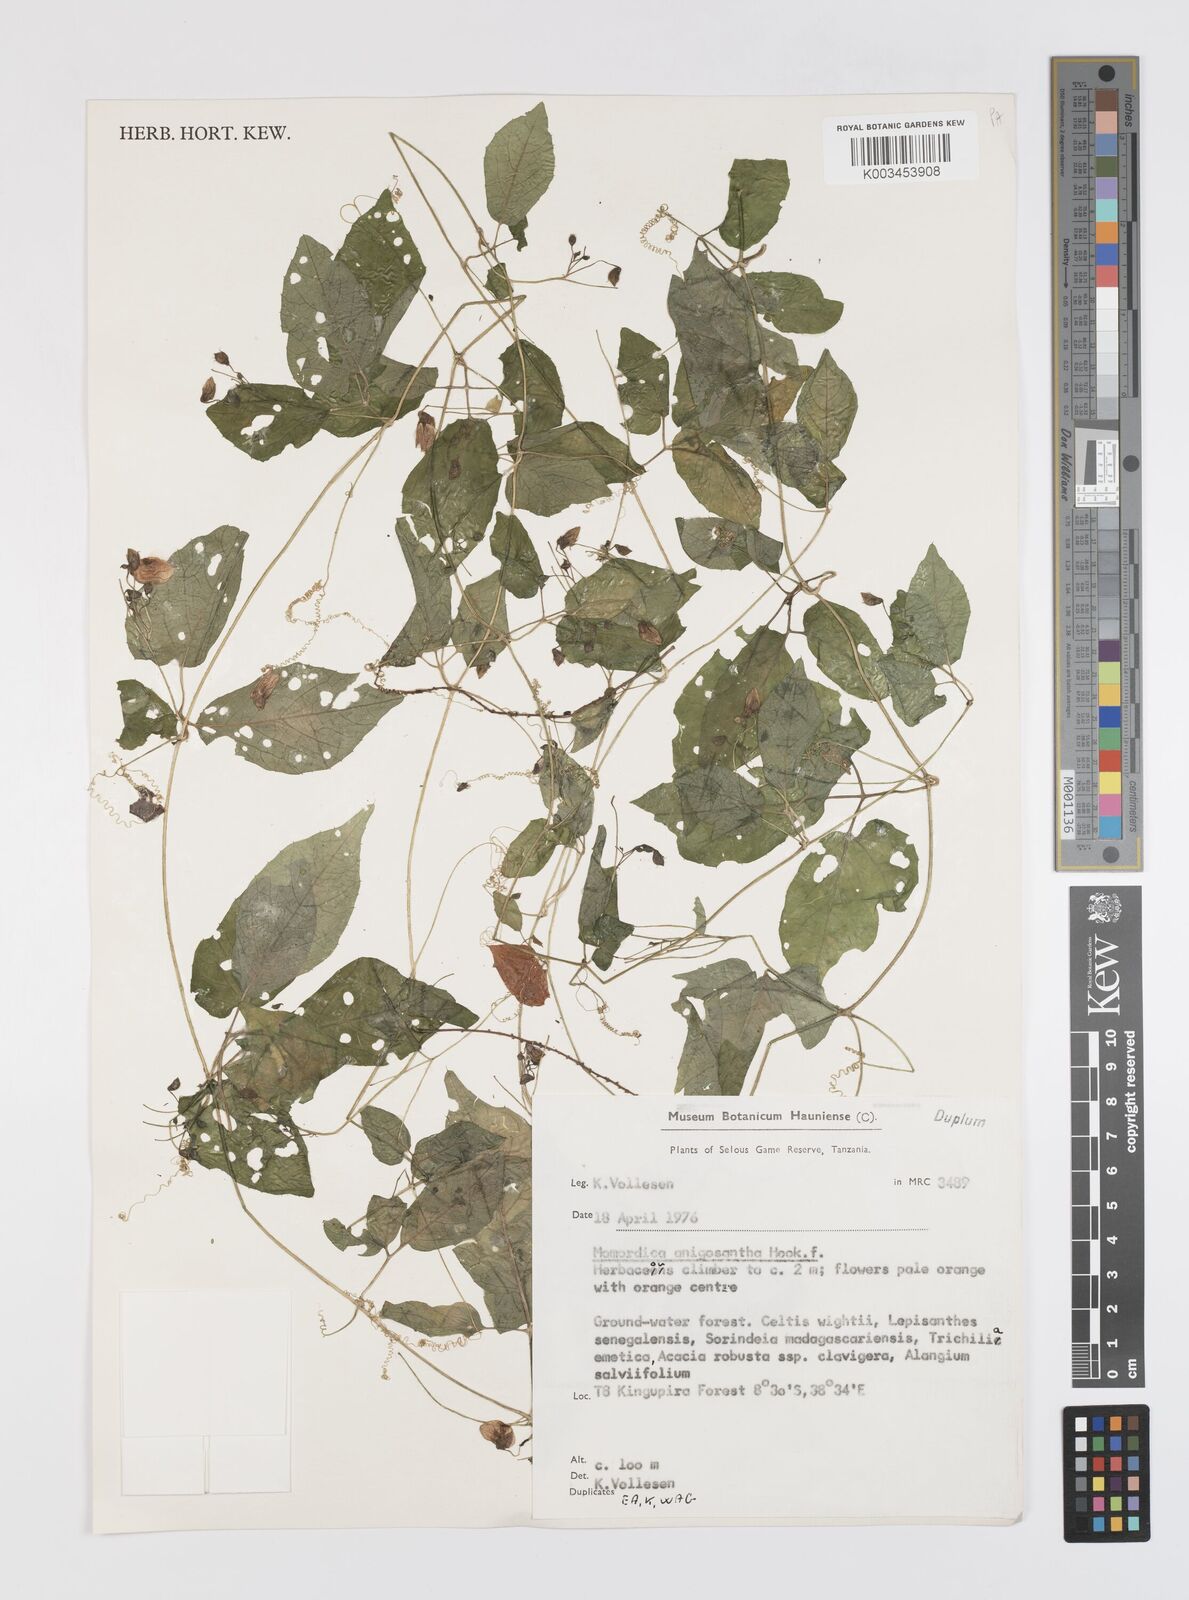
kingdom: Plantae
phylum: Tracheophyta
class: Magnoliopsida
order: Cucurbitales
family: Cucurbitaceae
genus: Momordica
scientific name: Momordica anigosantha
